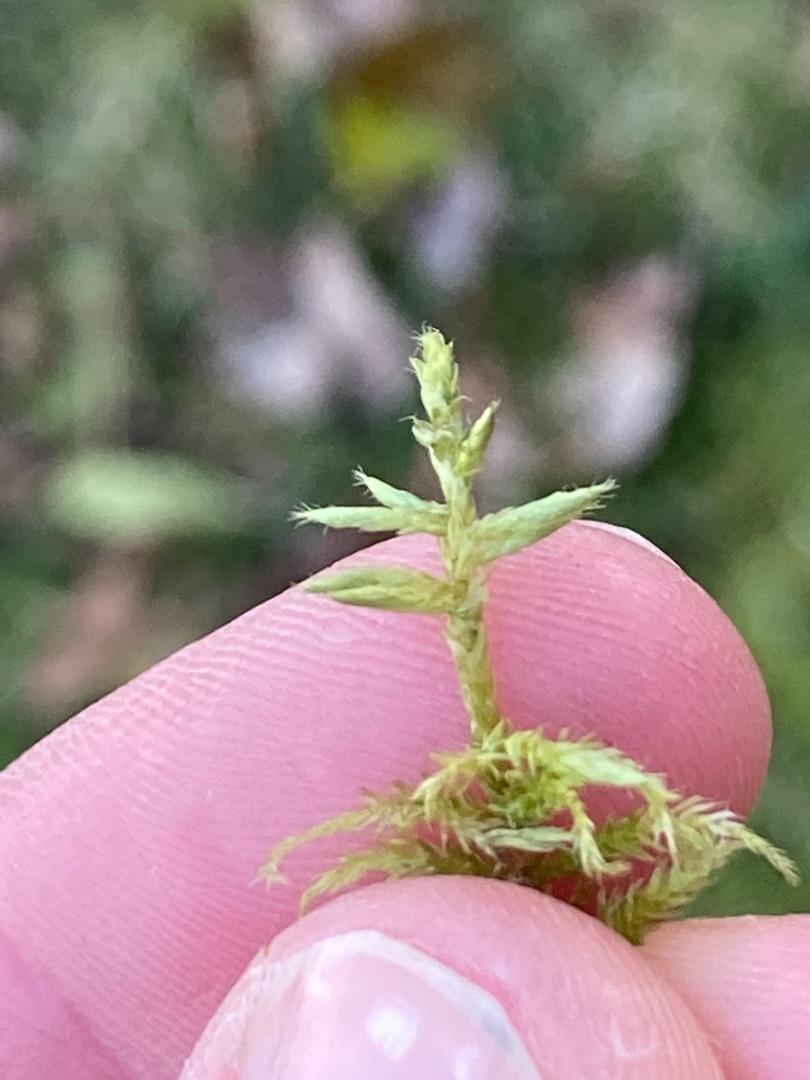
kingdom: Plantae
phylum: Bryophyta
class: Bryopsida
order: Hypnales
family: Brachytheciaceae
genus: Cirriphyllum
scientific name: Cirriphyllum piliferum
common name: Almindelig penselmos
